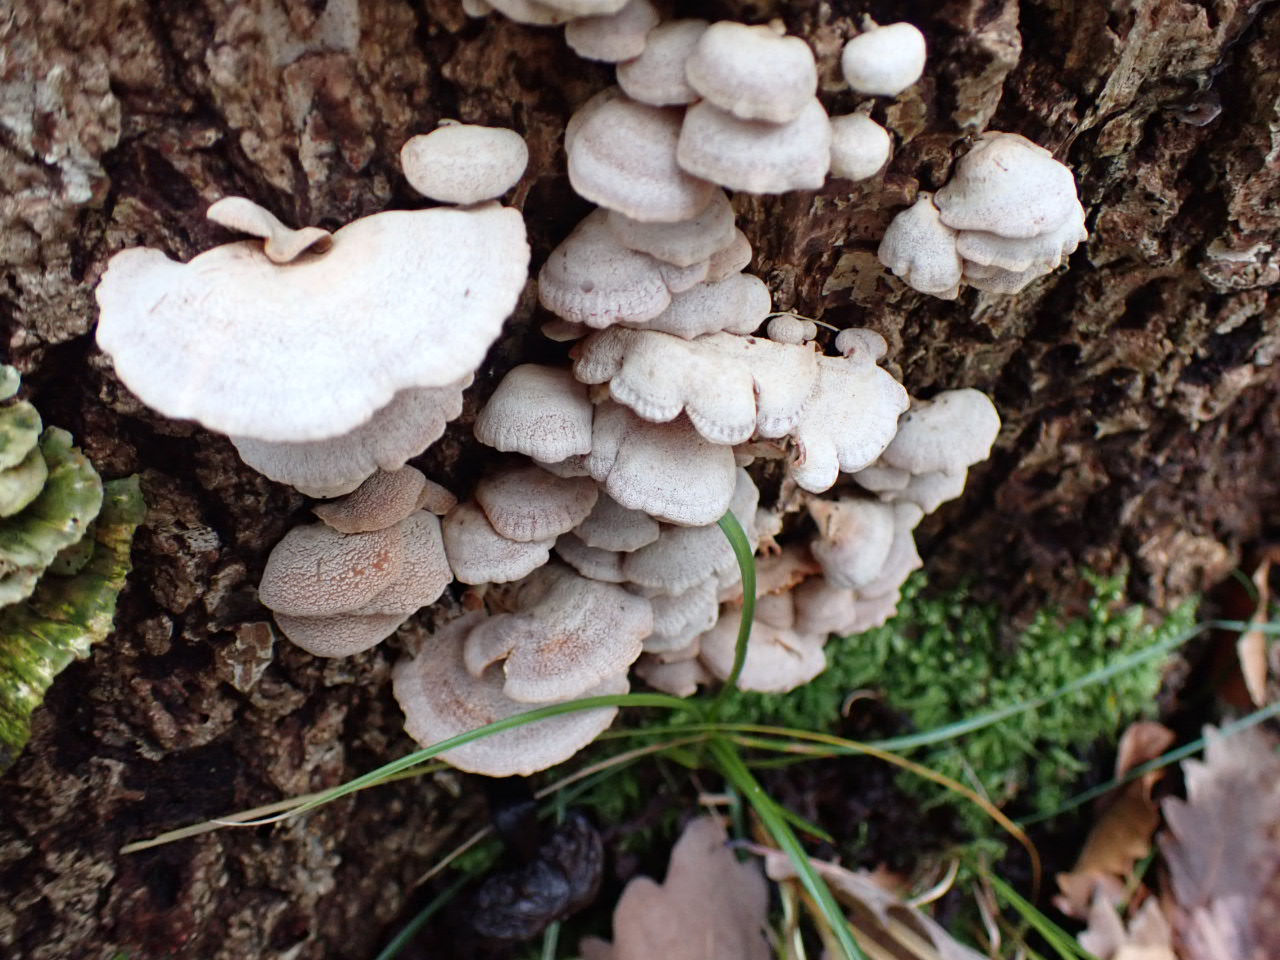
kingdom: Fungi
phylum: Basidiomycota
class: Agaricomycetes
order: Agaricales
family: Mycenaceae
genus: Panellus
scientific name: Panellus stipticus
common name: kliddet epaulethat
